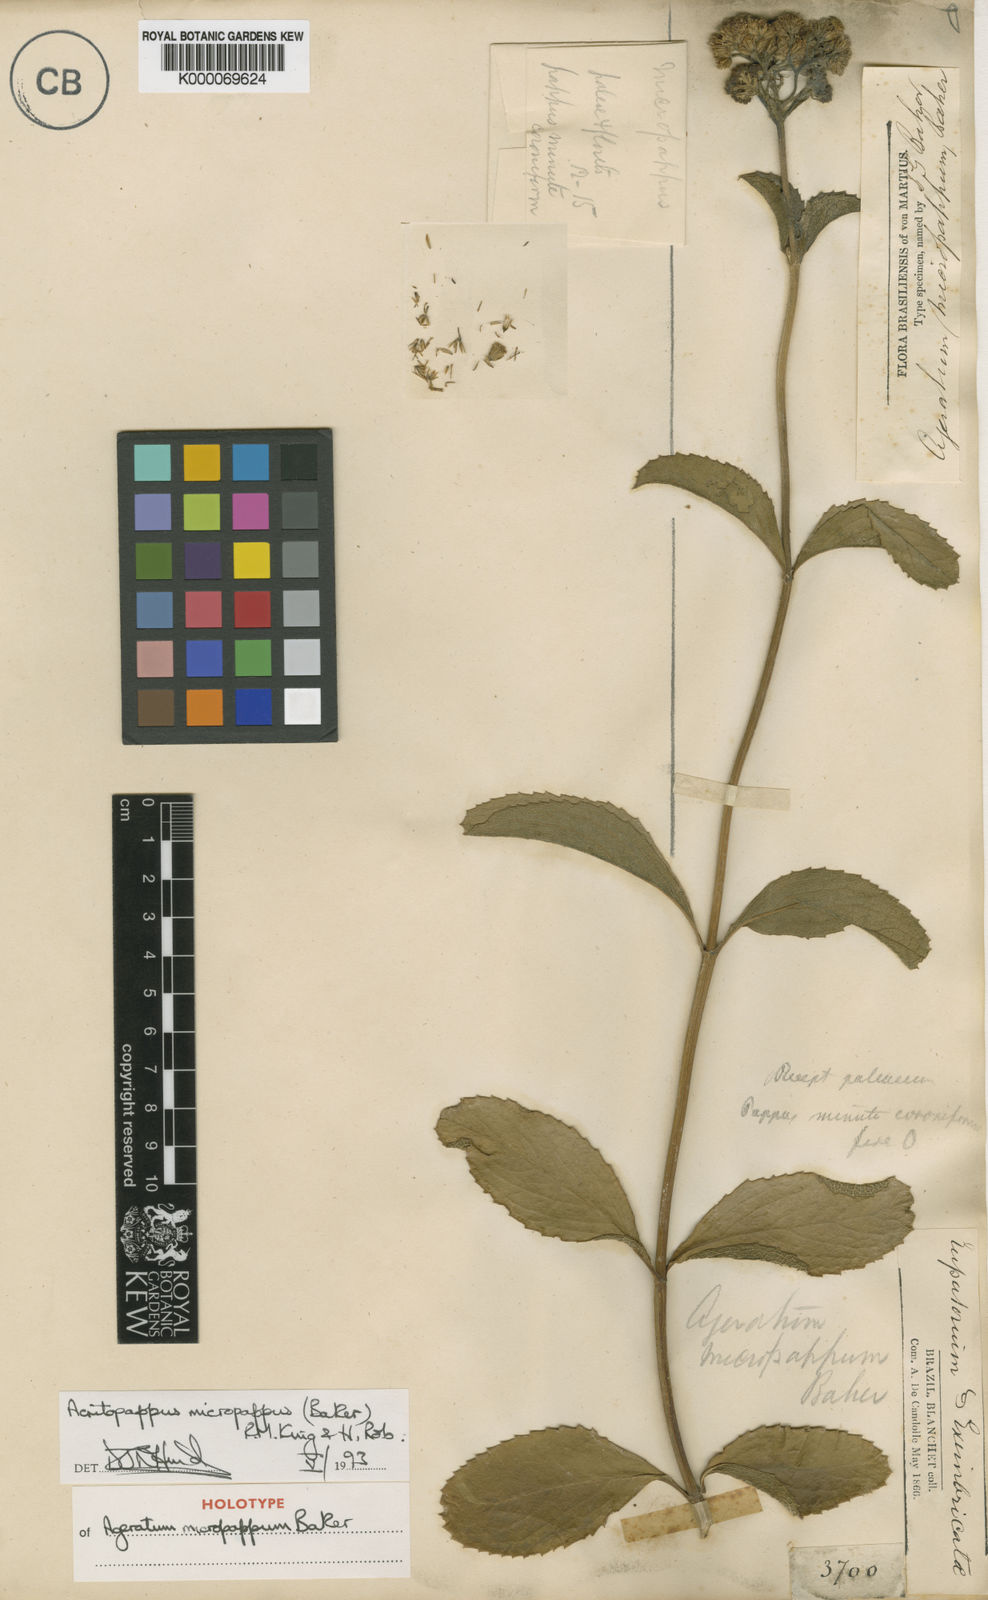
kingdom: Plantae
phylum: Tracheophyta
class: Magnoliopsida
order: Asterales
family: Asteraceae
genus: Acritopappus
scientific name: Acritopappus micropappus
